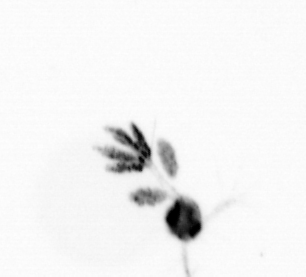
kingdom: Animalia
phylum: Arthropoda
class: Copepoda
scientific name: Copepoda
